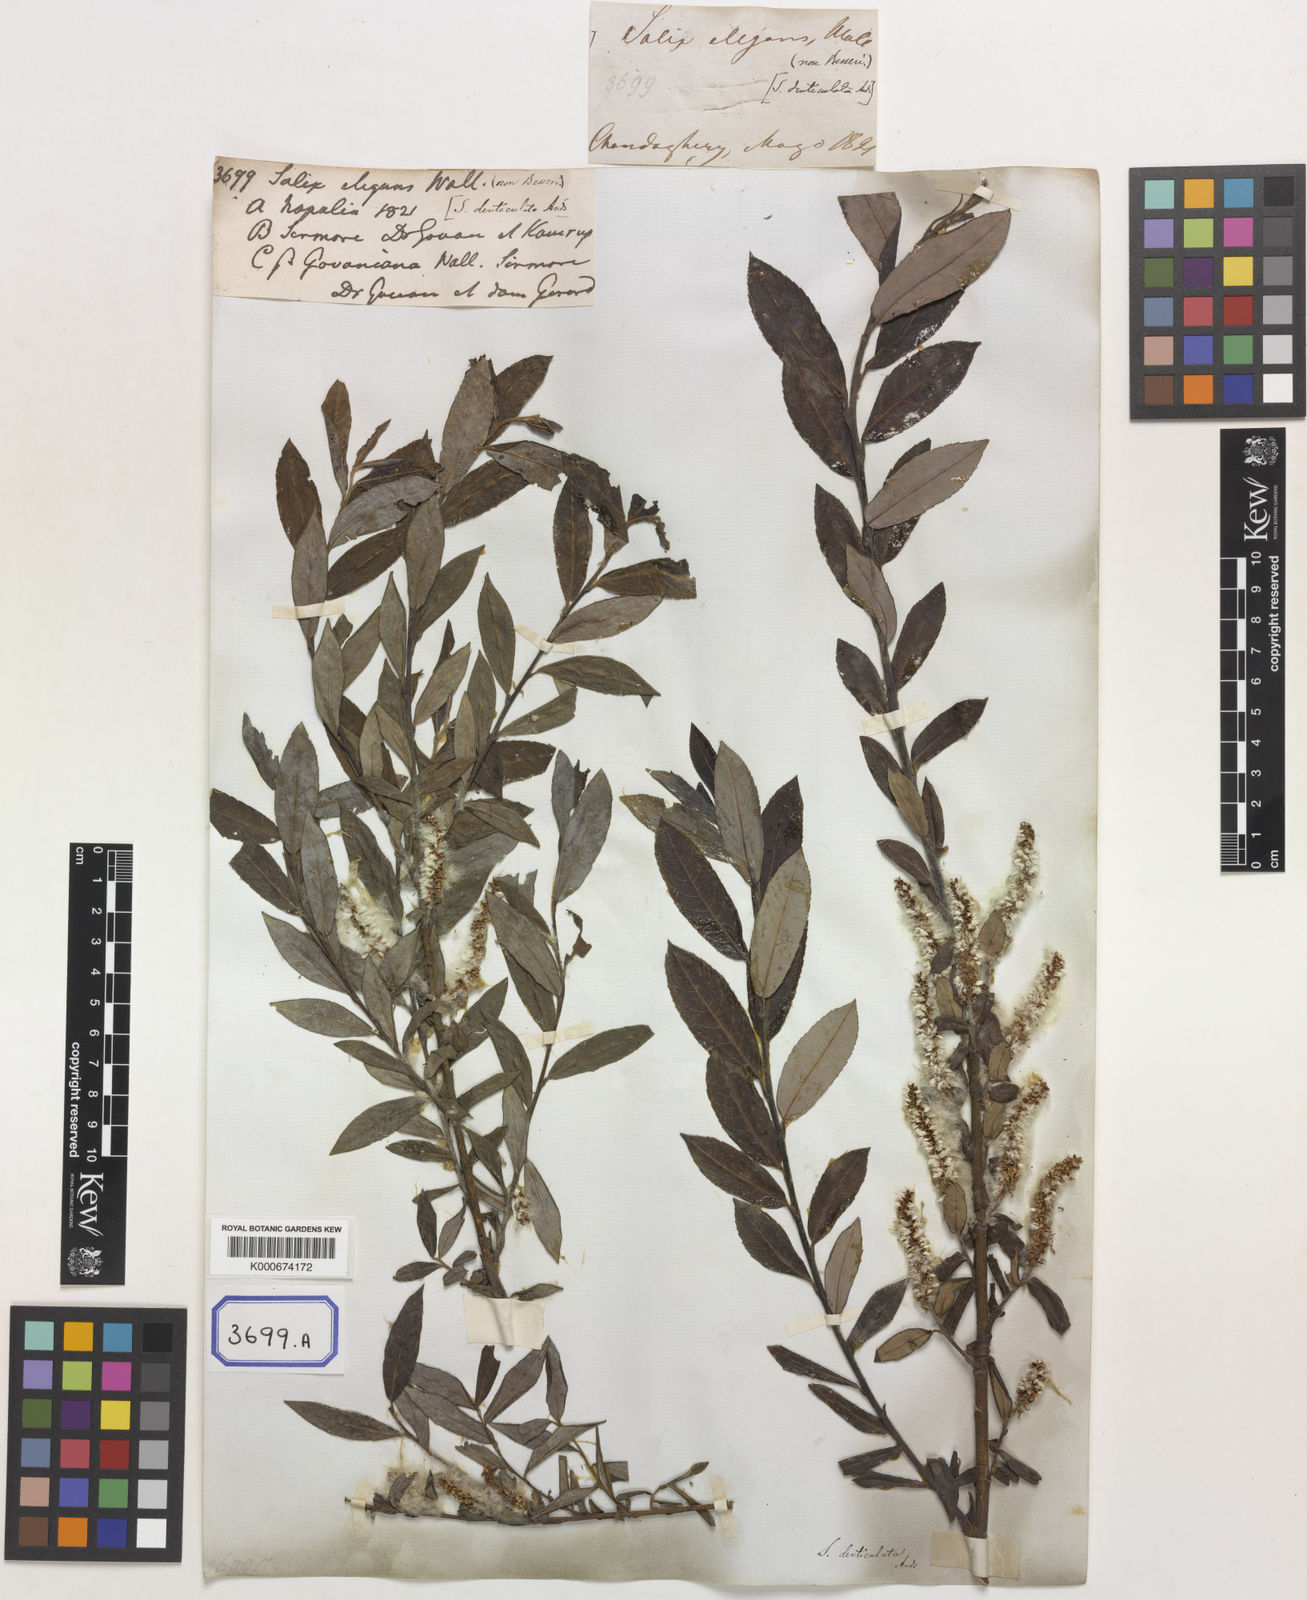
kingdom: Plantae
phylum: Tracheophyta
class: Magnoliopsida
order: Malpighiales
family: Salicaceae
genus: Salix
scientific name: Salix denticulata
